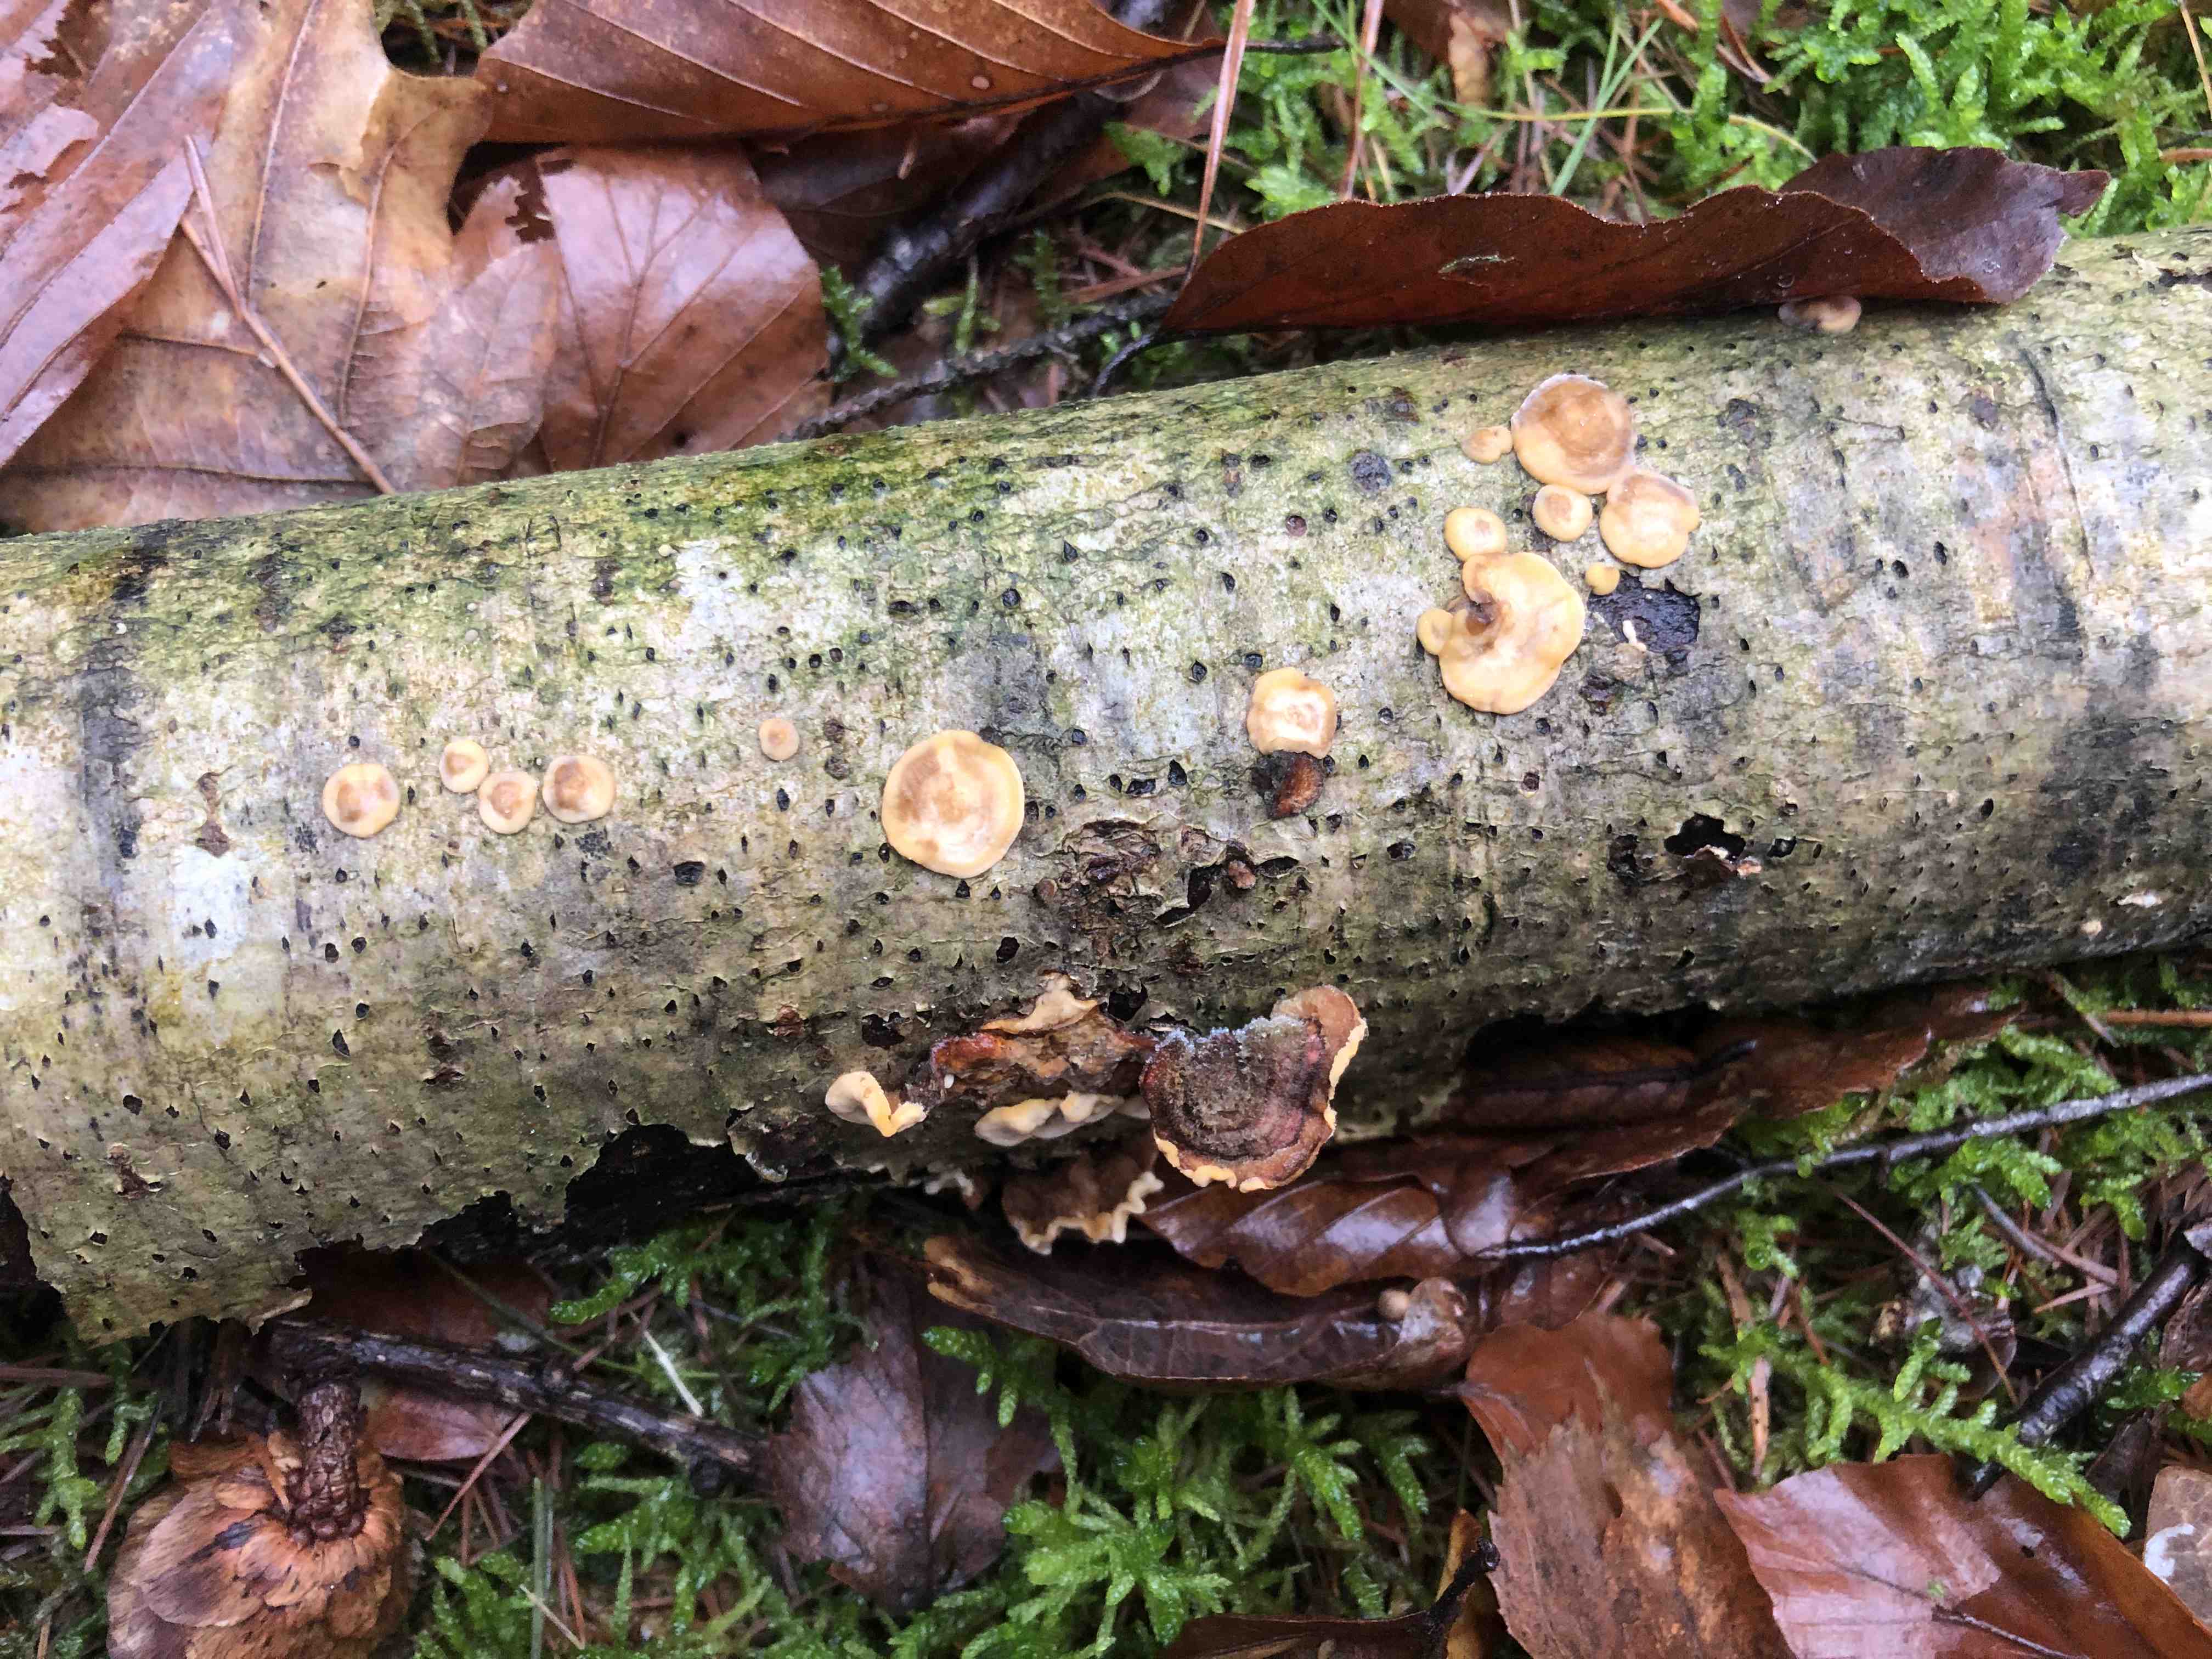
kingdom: Fungi
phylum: Basidiomycota
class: Agaricomycetes
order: Russulales
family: Stereaceae
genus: Stereum
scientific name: Stereum hirsutum
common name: håret lædersvamp
